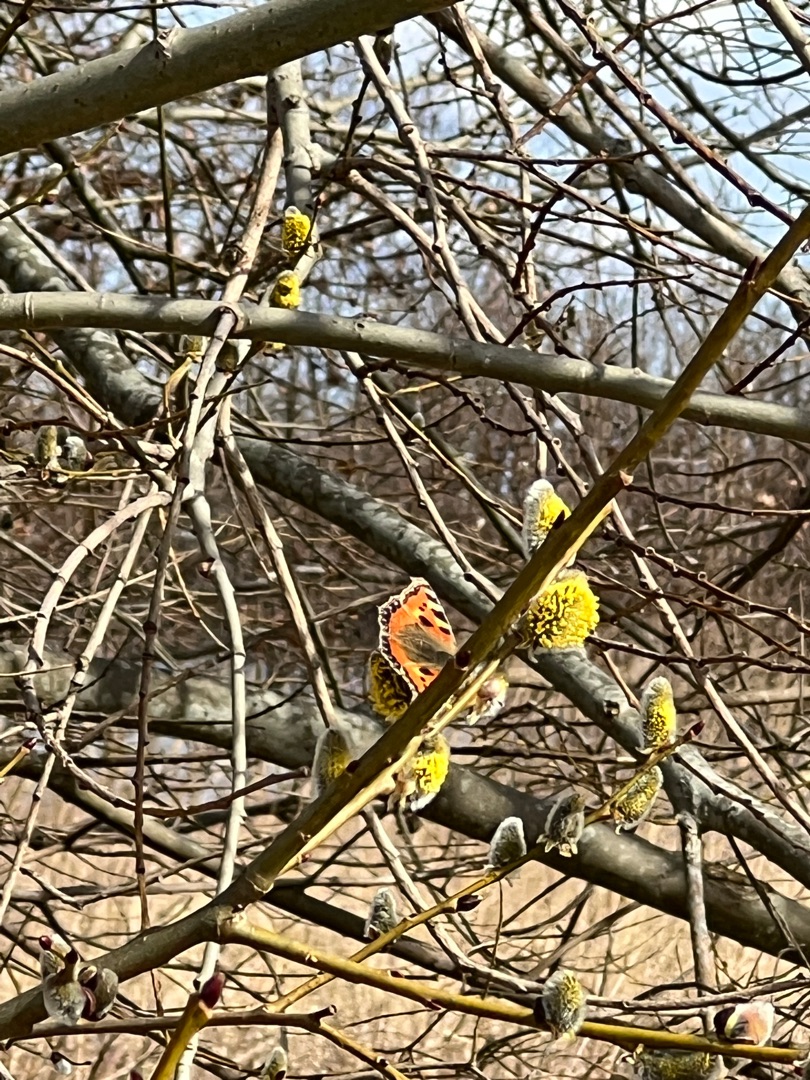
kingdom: Animalia
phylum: Arthropoda
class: Insecta
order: Lepidoptera
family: Nymphalidae
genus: Aglais
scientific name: Aglais urticae
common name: Nældens takvinge
